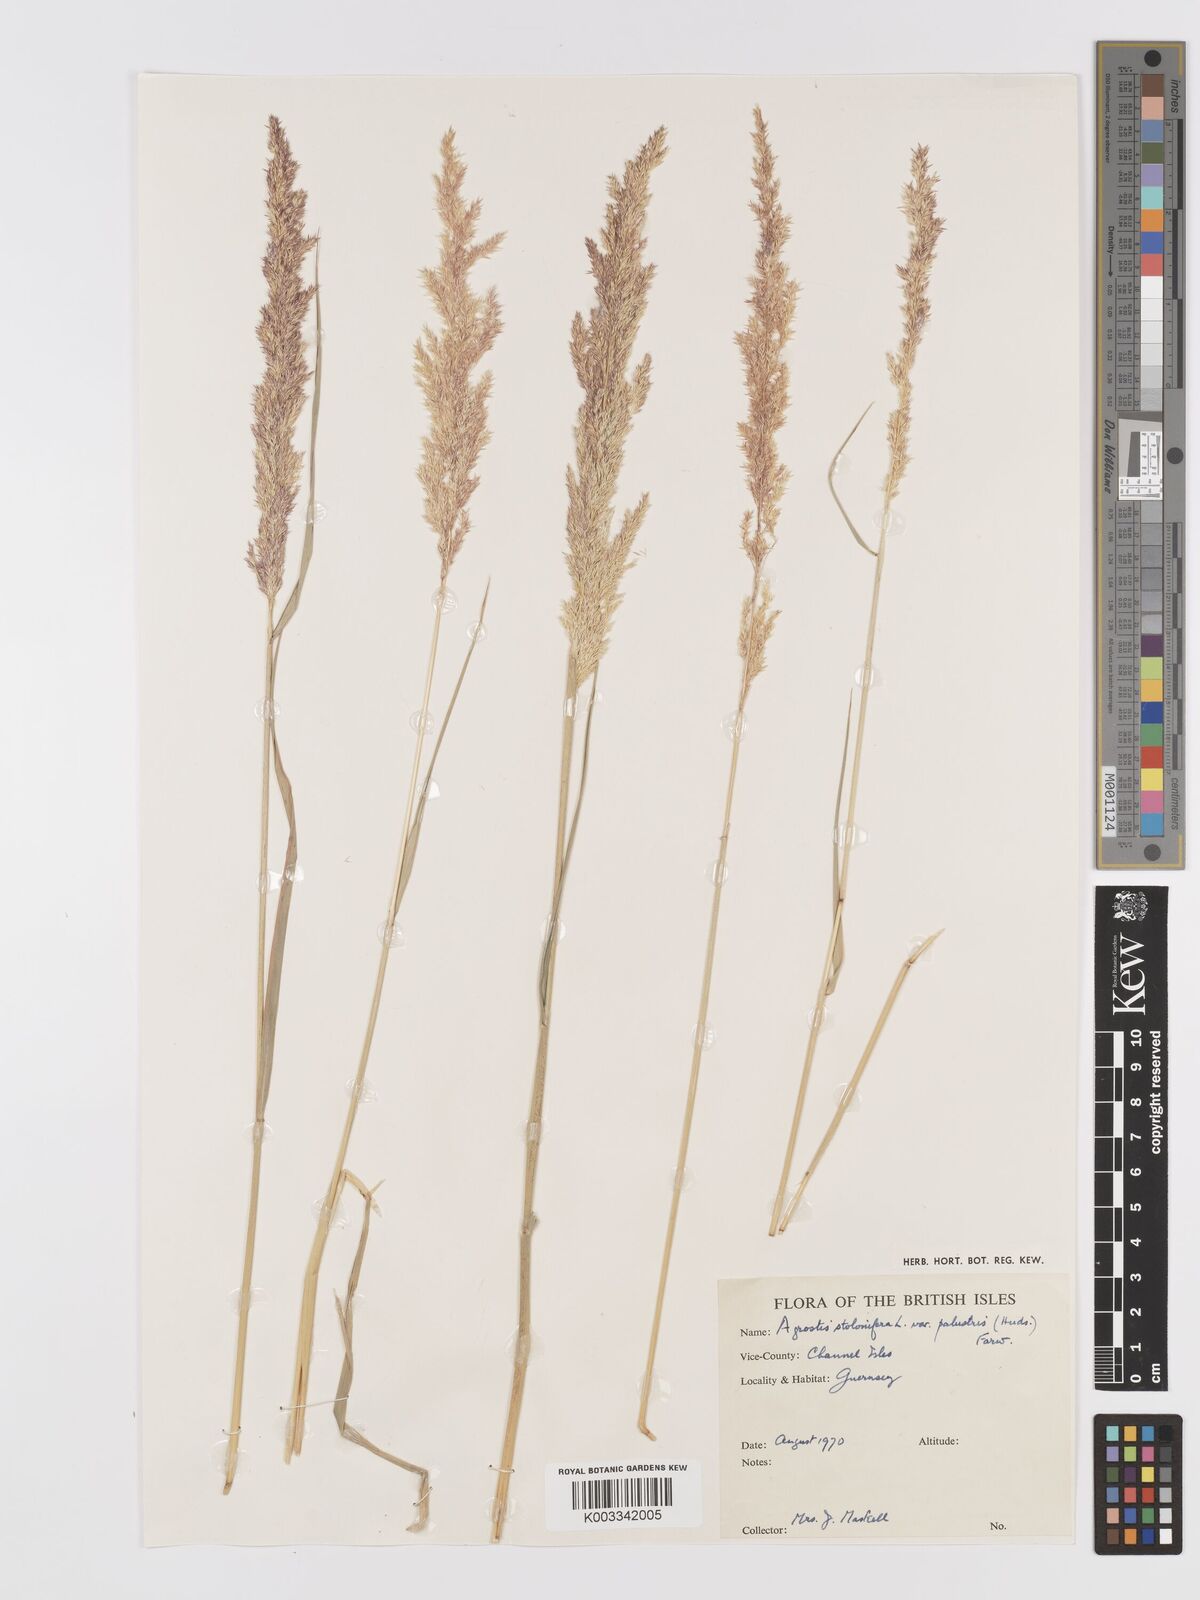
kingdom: Plantae
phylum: Tracheophyta
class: Liliopsida
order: Poales
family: Poaceae
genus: Agrostis
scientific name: Agrostis stolonifera
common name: Creeping bentgrass
